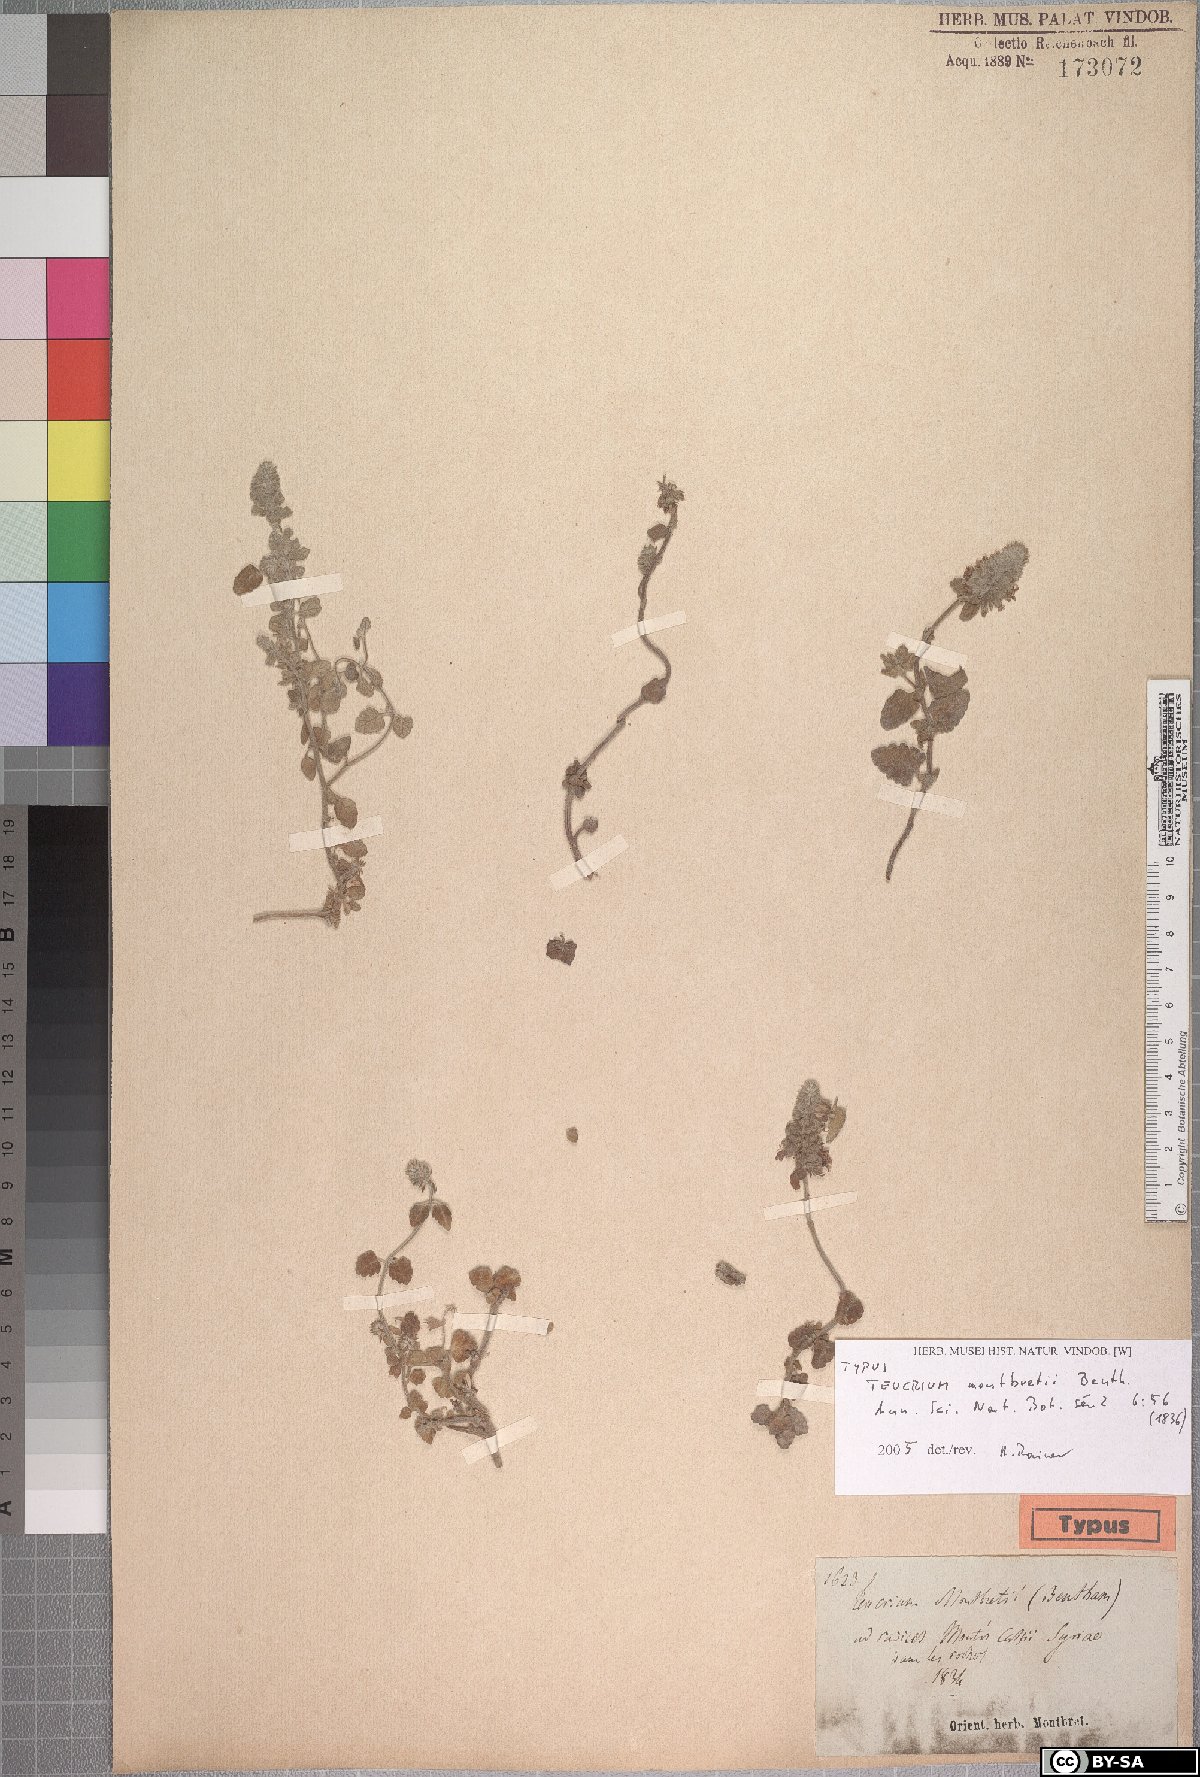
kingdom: Plantae
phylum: Tracheophyta
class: Magnoliopsida
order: Lamiales
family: Lamiaceae
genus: Teucrium
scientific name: Teucrium montbretii
